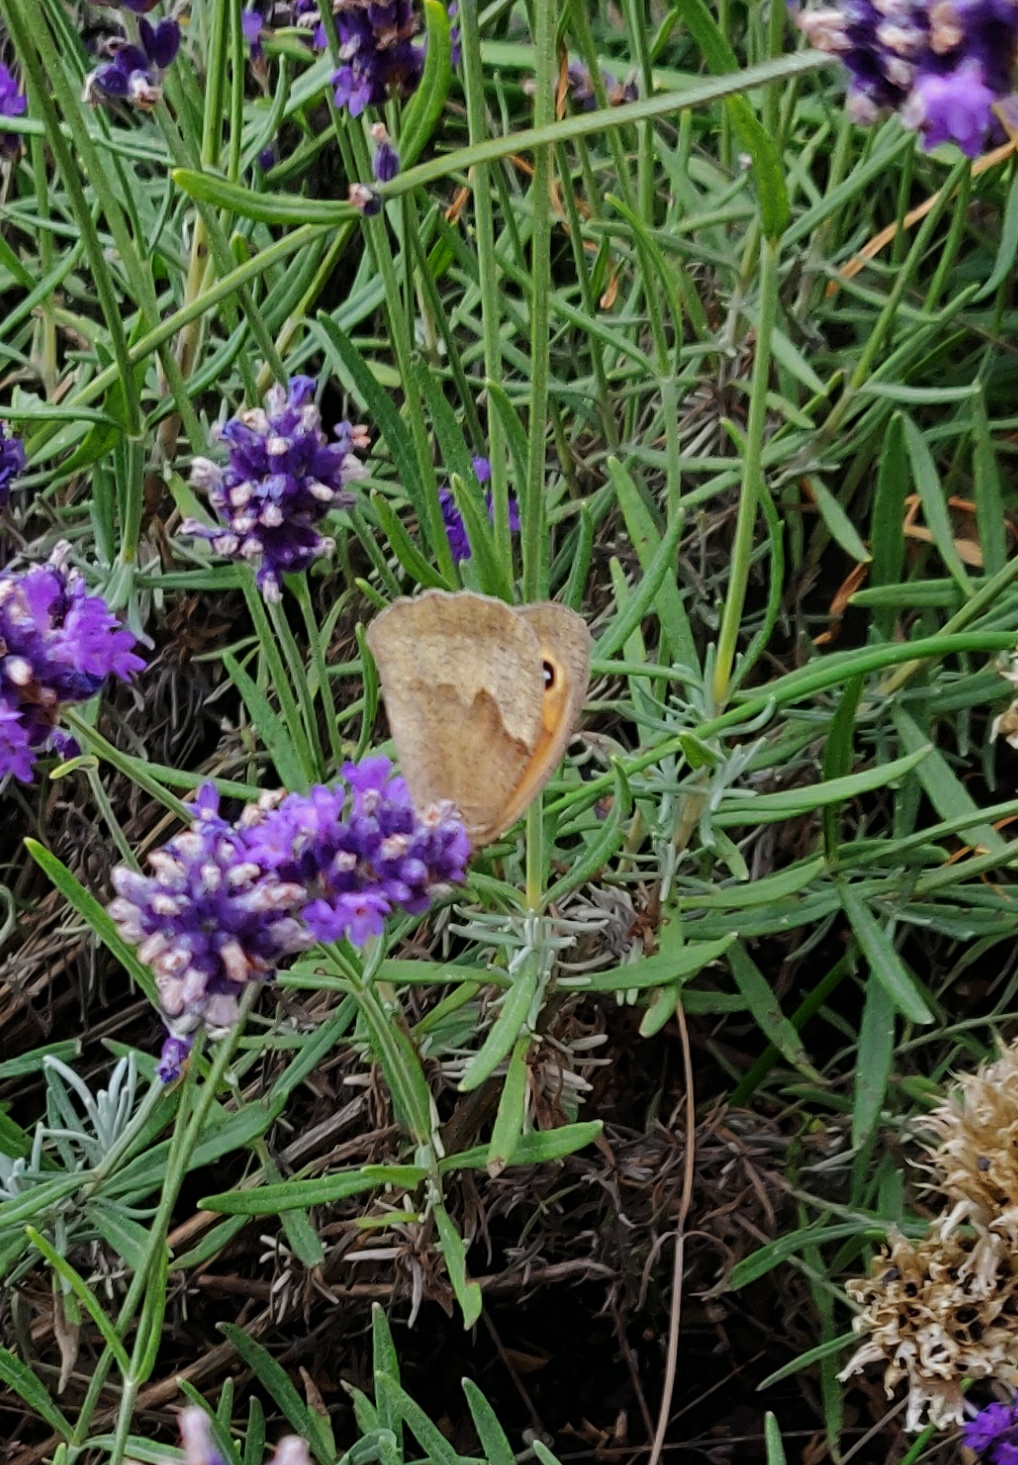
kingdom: Animalia
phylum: Arthropoda
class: Insecta
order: Lepidoptera
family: Nymphalidae
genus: Maniola
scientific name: Maniola jurtina
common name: Græsrandøje
